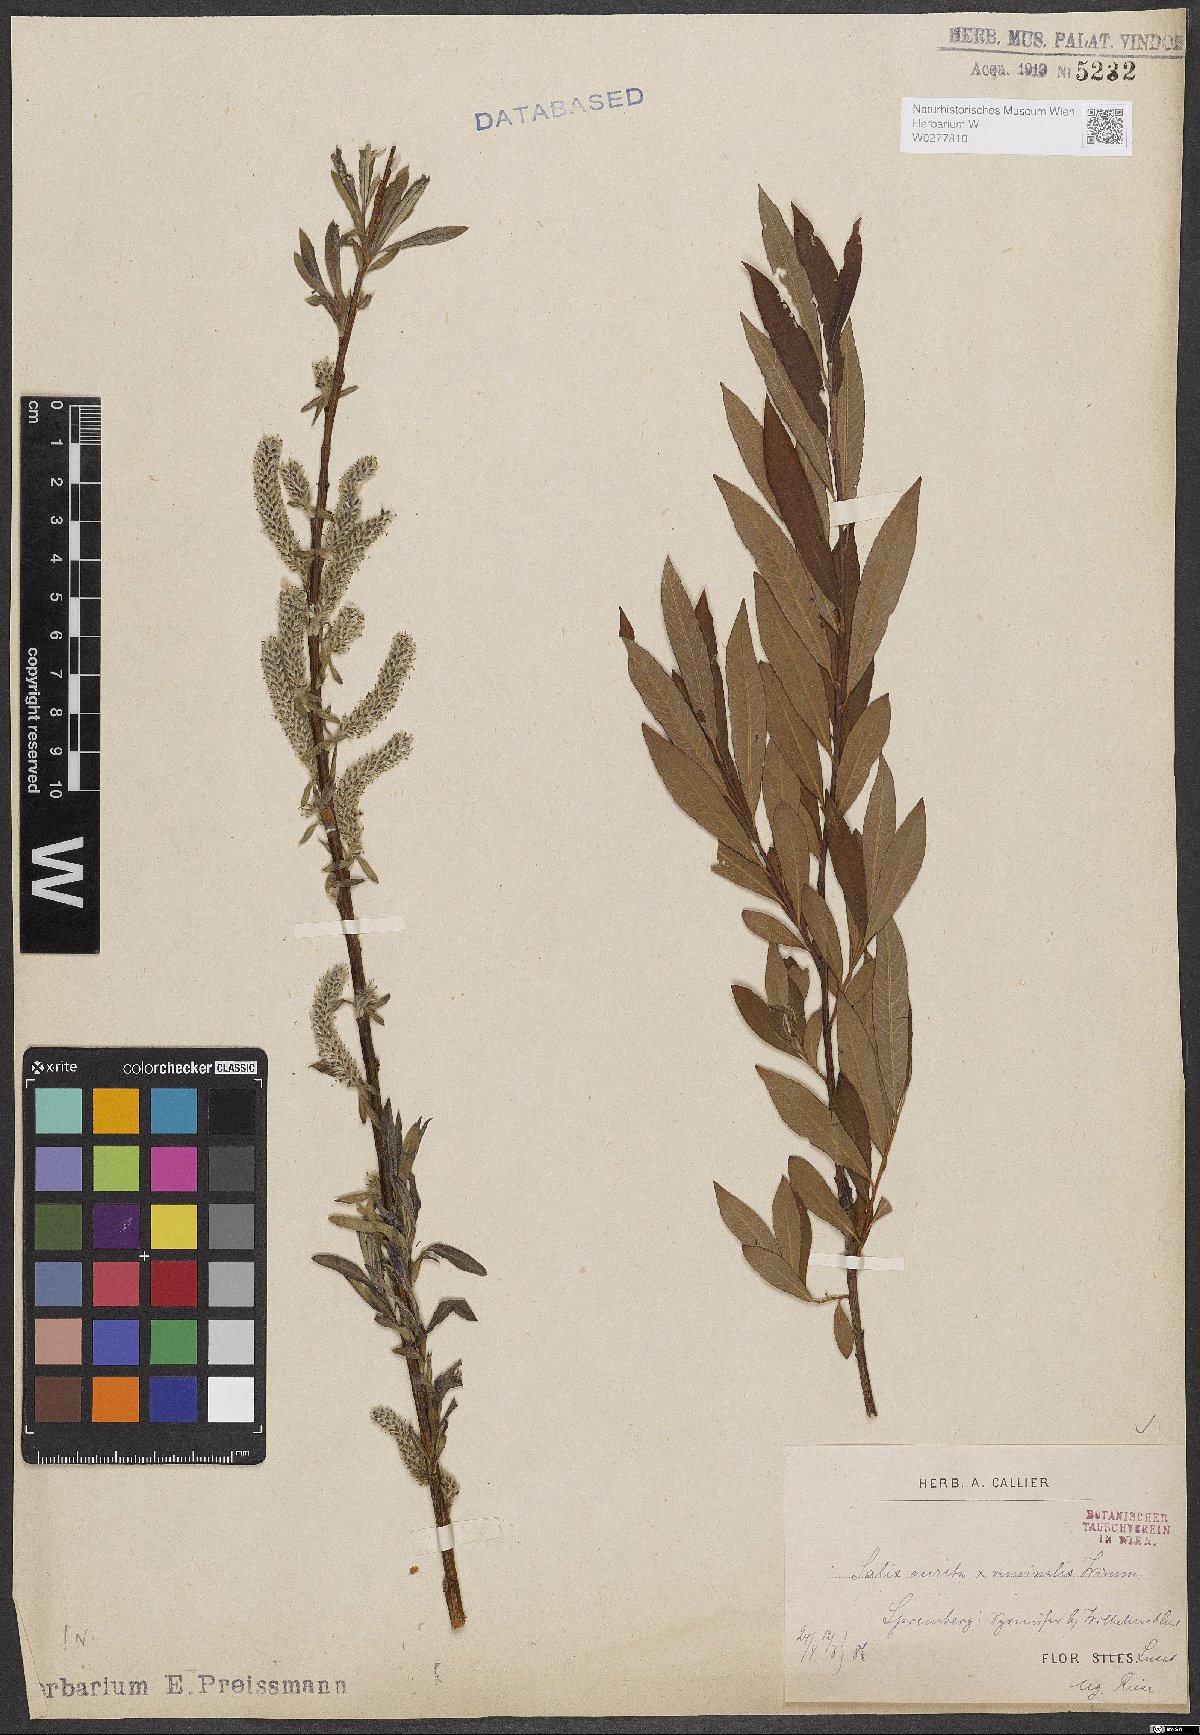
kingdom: Plantae
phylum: Tracheophyta
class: Magnoliopsida
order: Malpighiales
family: Salicaceae
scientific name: Salicaceae
